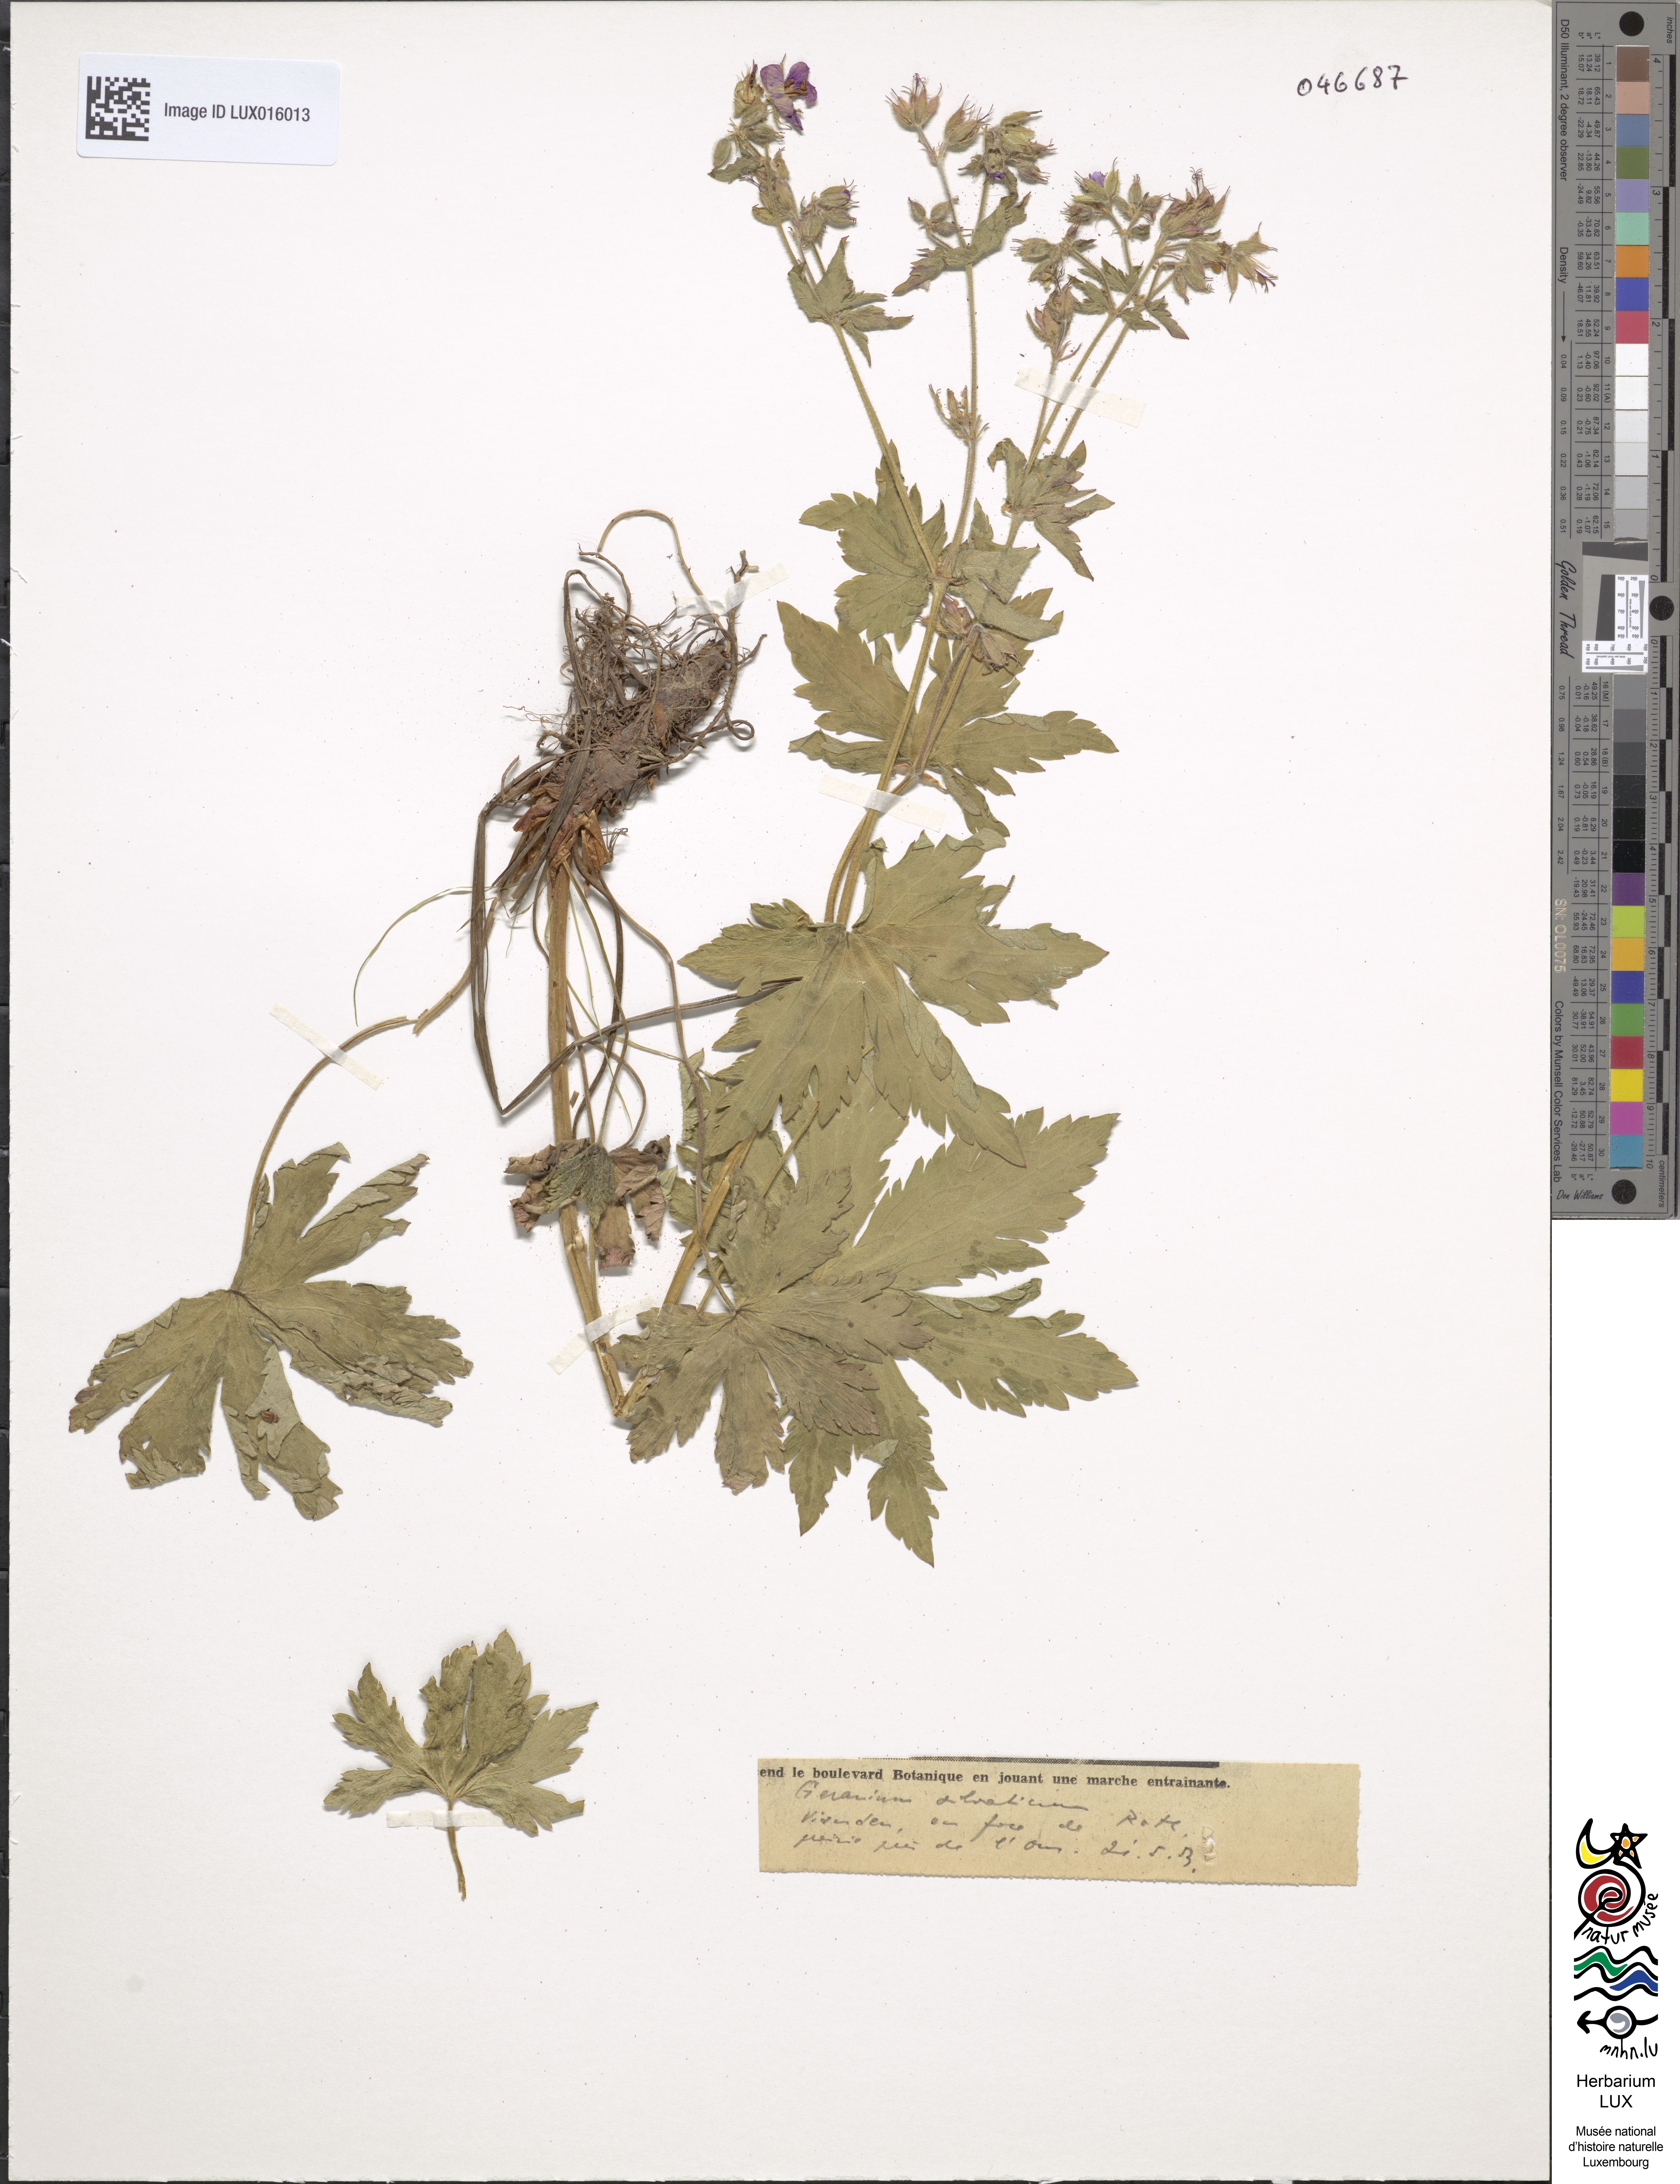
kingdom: Plantae
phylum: Tracheophyta
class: Magnoliopsida
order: Geraniales
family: Geraniaceae
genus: Geranium
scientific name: Geranium sylvaticum
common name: Wood crane's-bill
